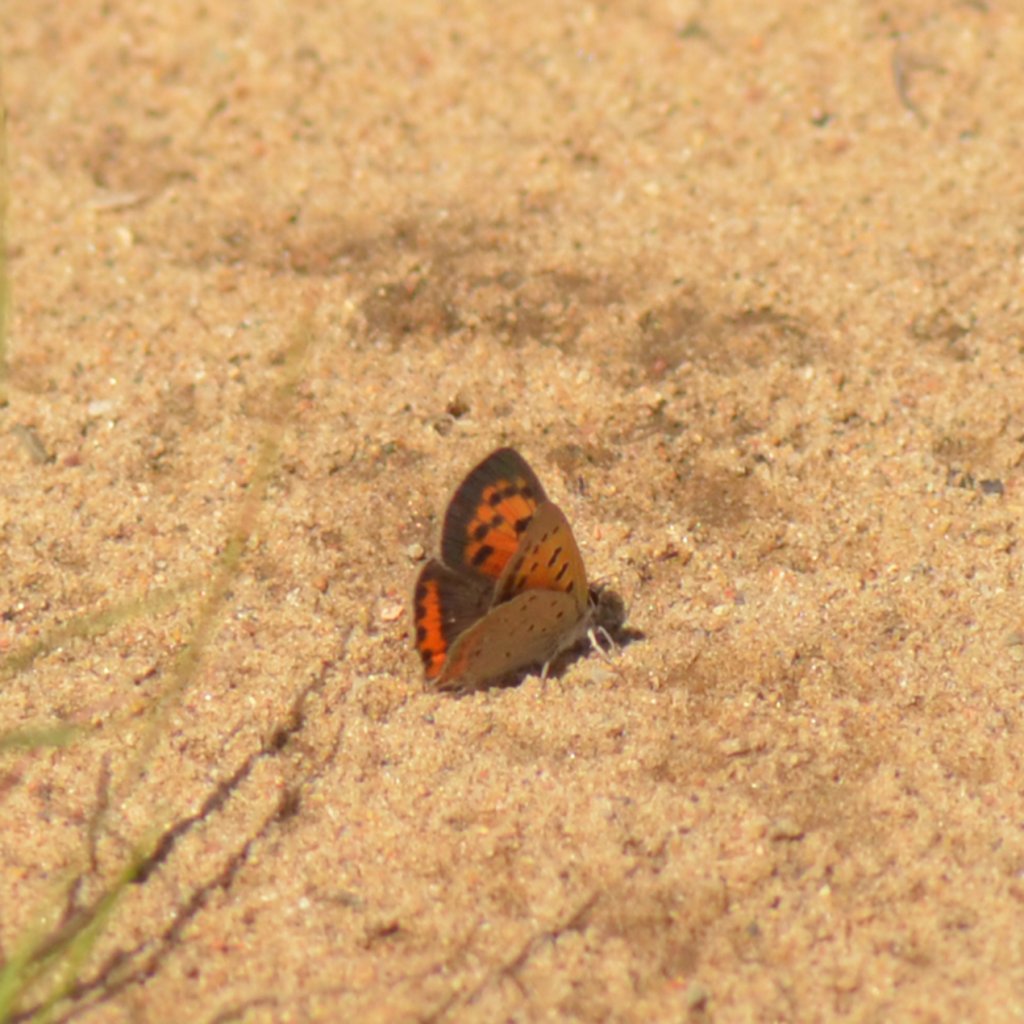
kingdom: Animalia
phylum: Arthropoda
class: Insecta
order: Lepidoptera
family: Lycaenidae
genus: Lycaena
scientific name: Lycaena phlaeas
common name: American Copper
